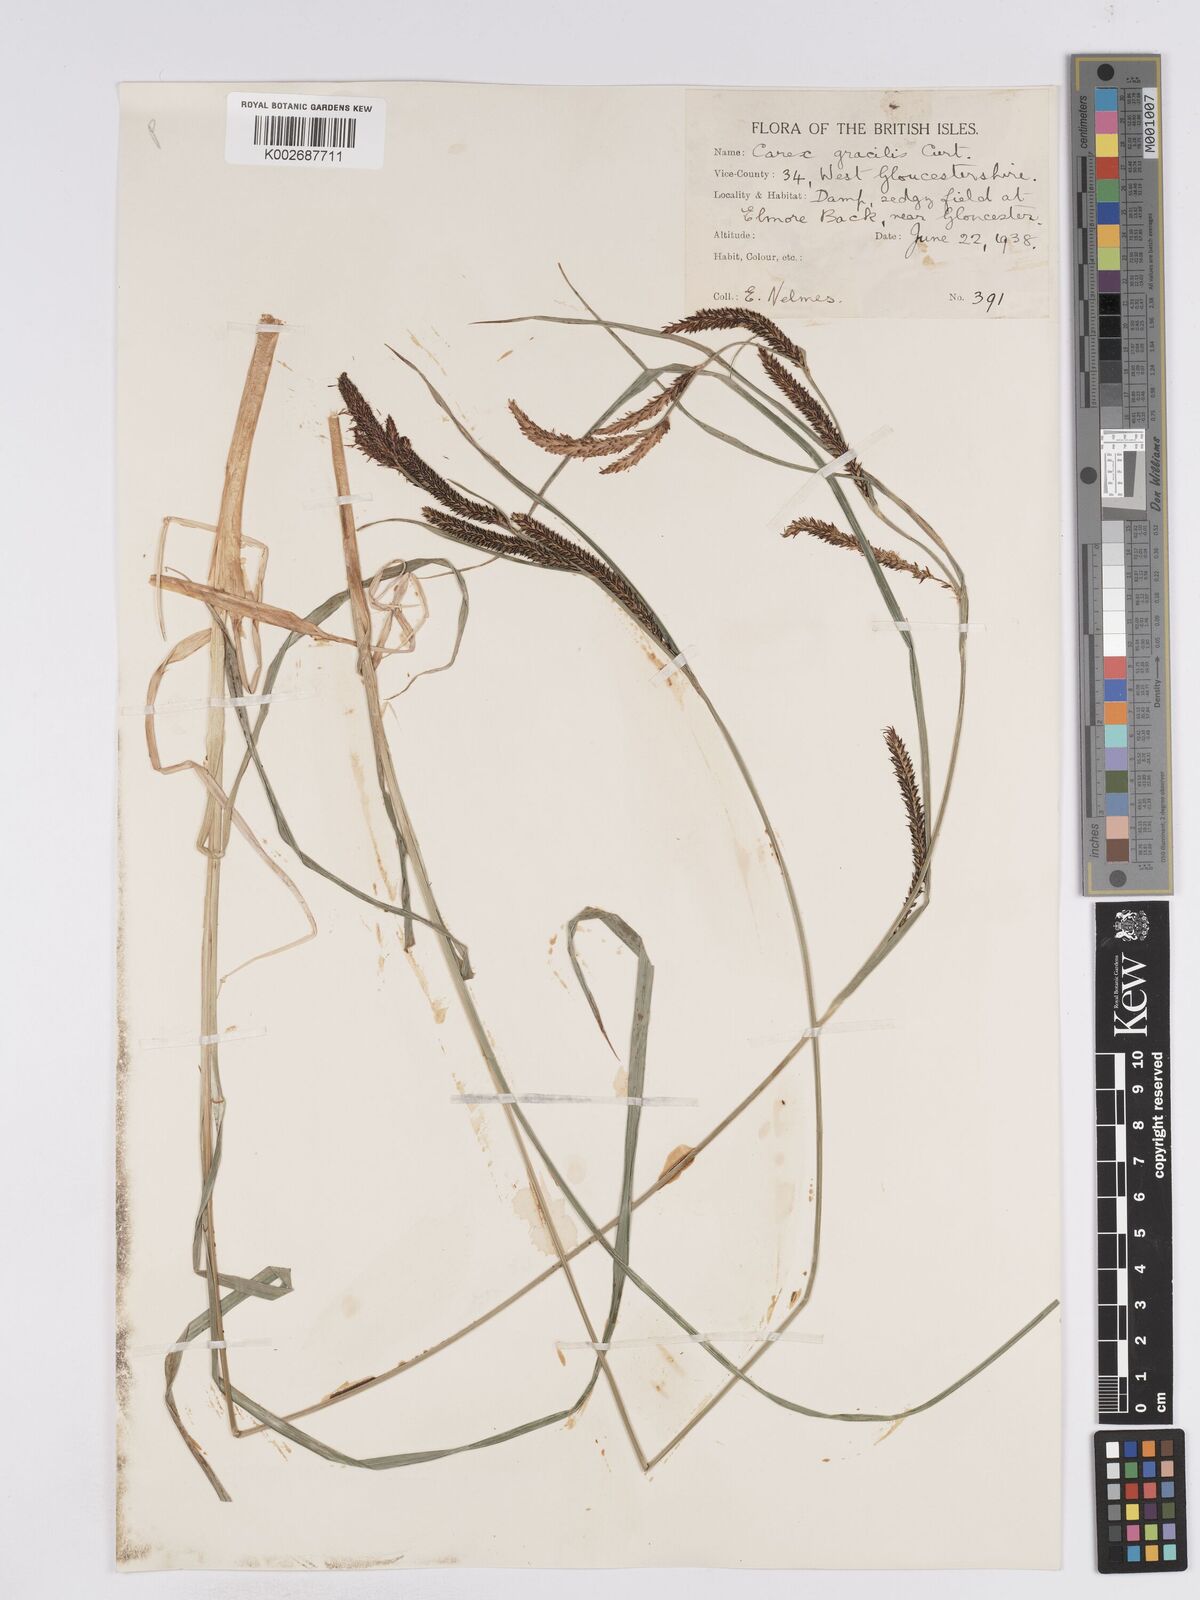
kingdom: Plantae
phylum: Tracheophyta
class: Liliopsida
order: Poales
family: Cyperaceae
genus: Carex
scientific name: Carex acuta
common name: Slender tufted-sedge
